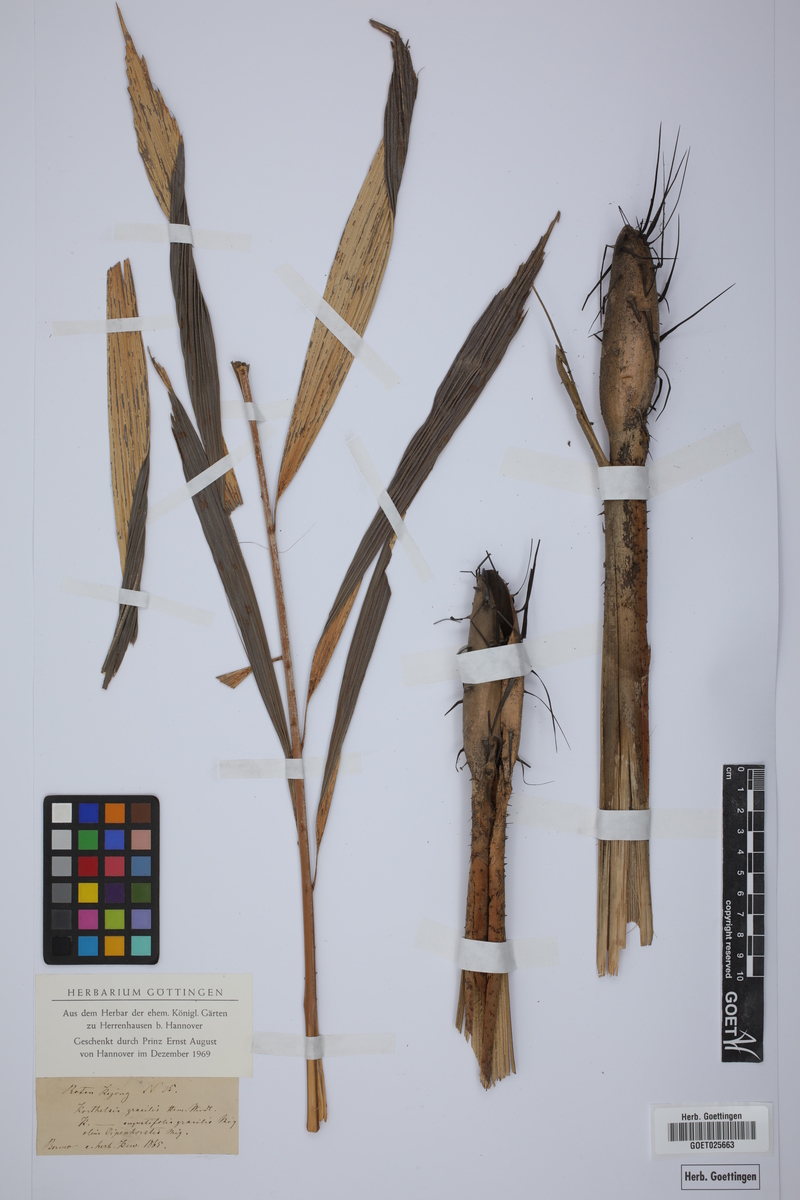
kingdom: Plantae
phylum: Tracheophyta
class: Liliopsida
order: Arecales
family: Arecaceae
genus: Korthalsia
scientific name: Korthalsia echinometra
